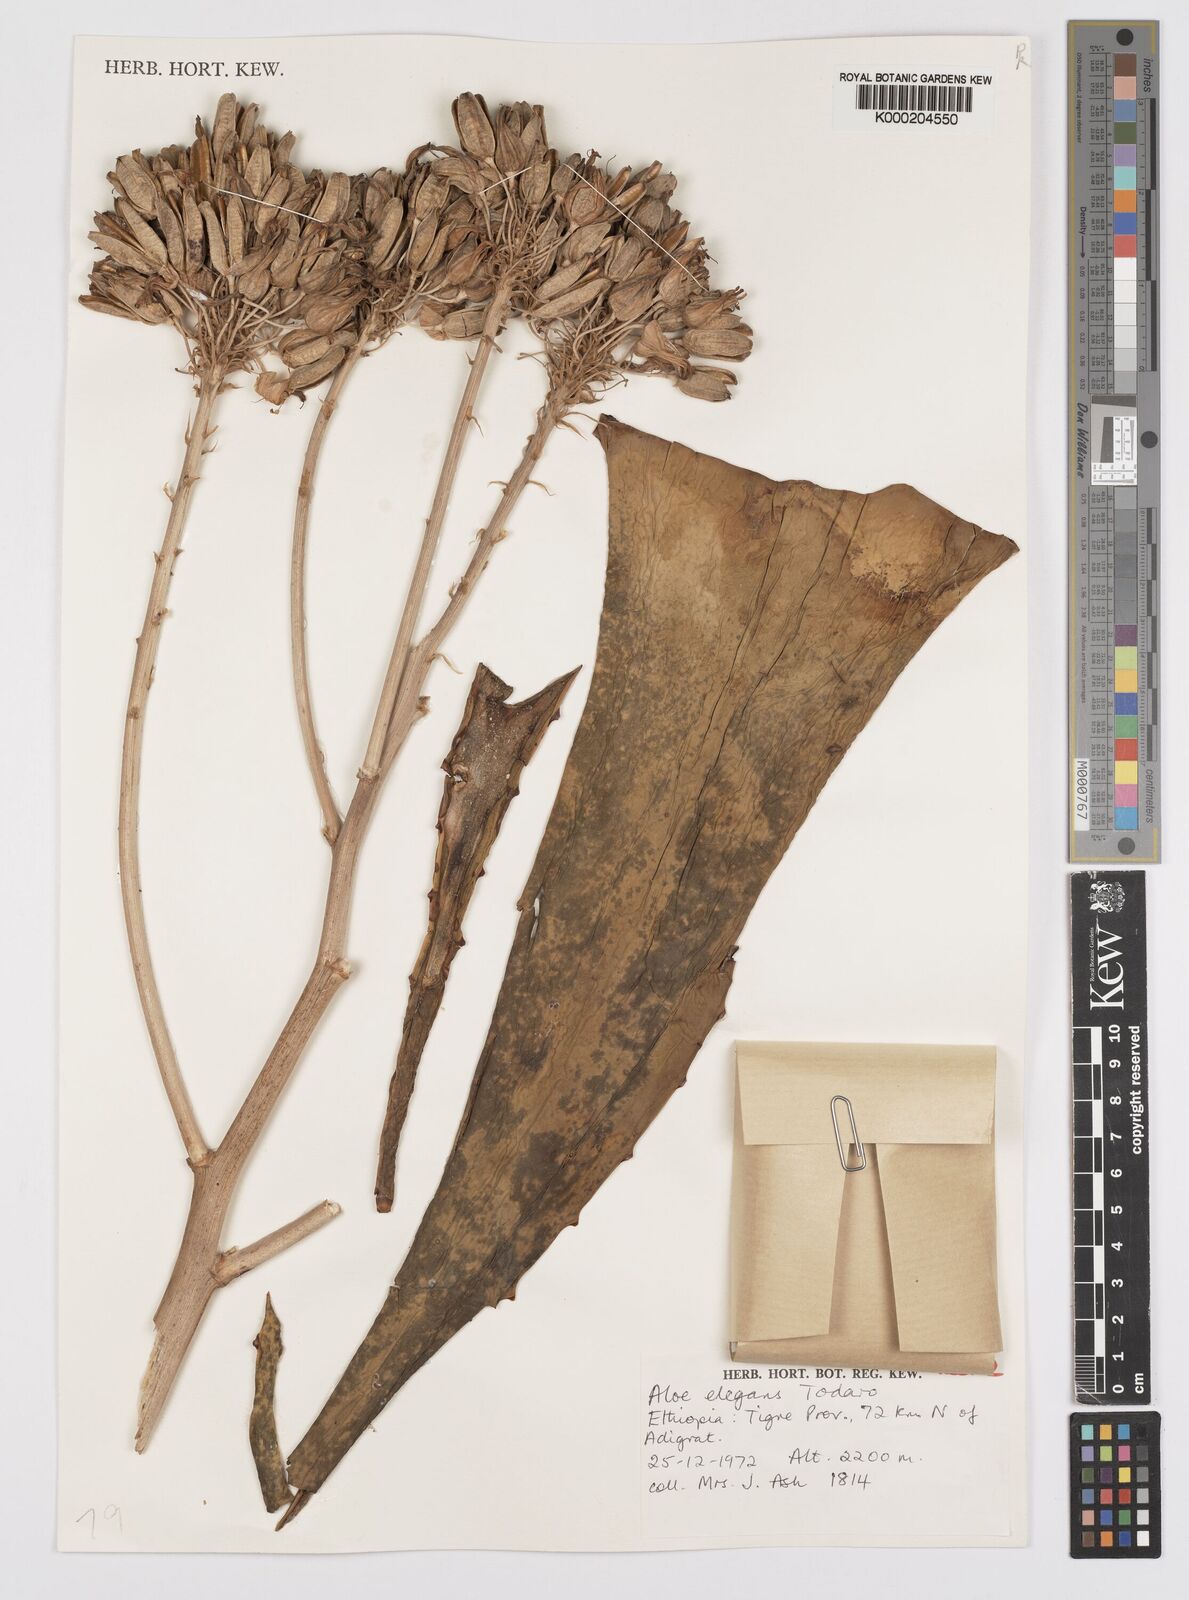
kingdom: Plantae
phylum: Tracheophyta
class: Liliopsida
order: Asparagales
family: Asphodelaceae
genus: Aloe
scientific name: Aloe elegans
